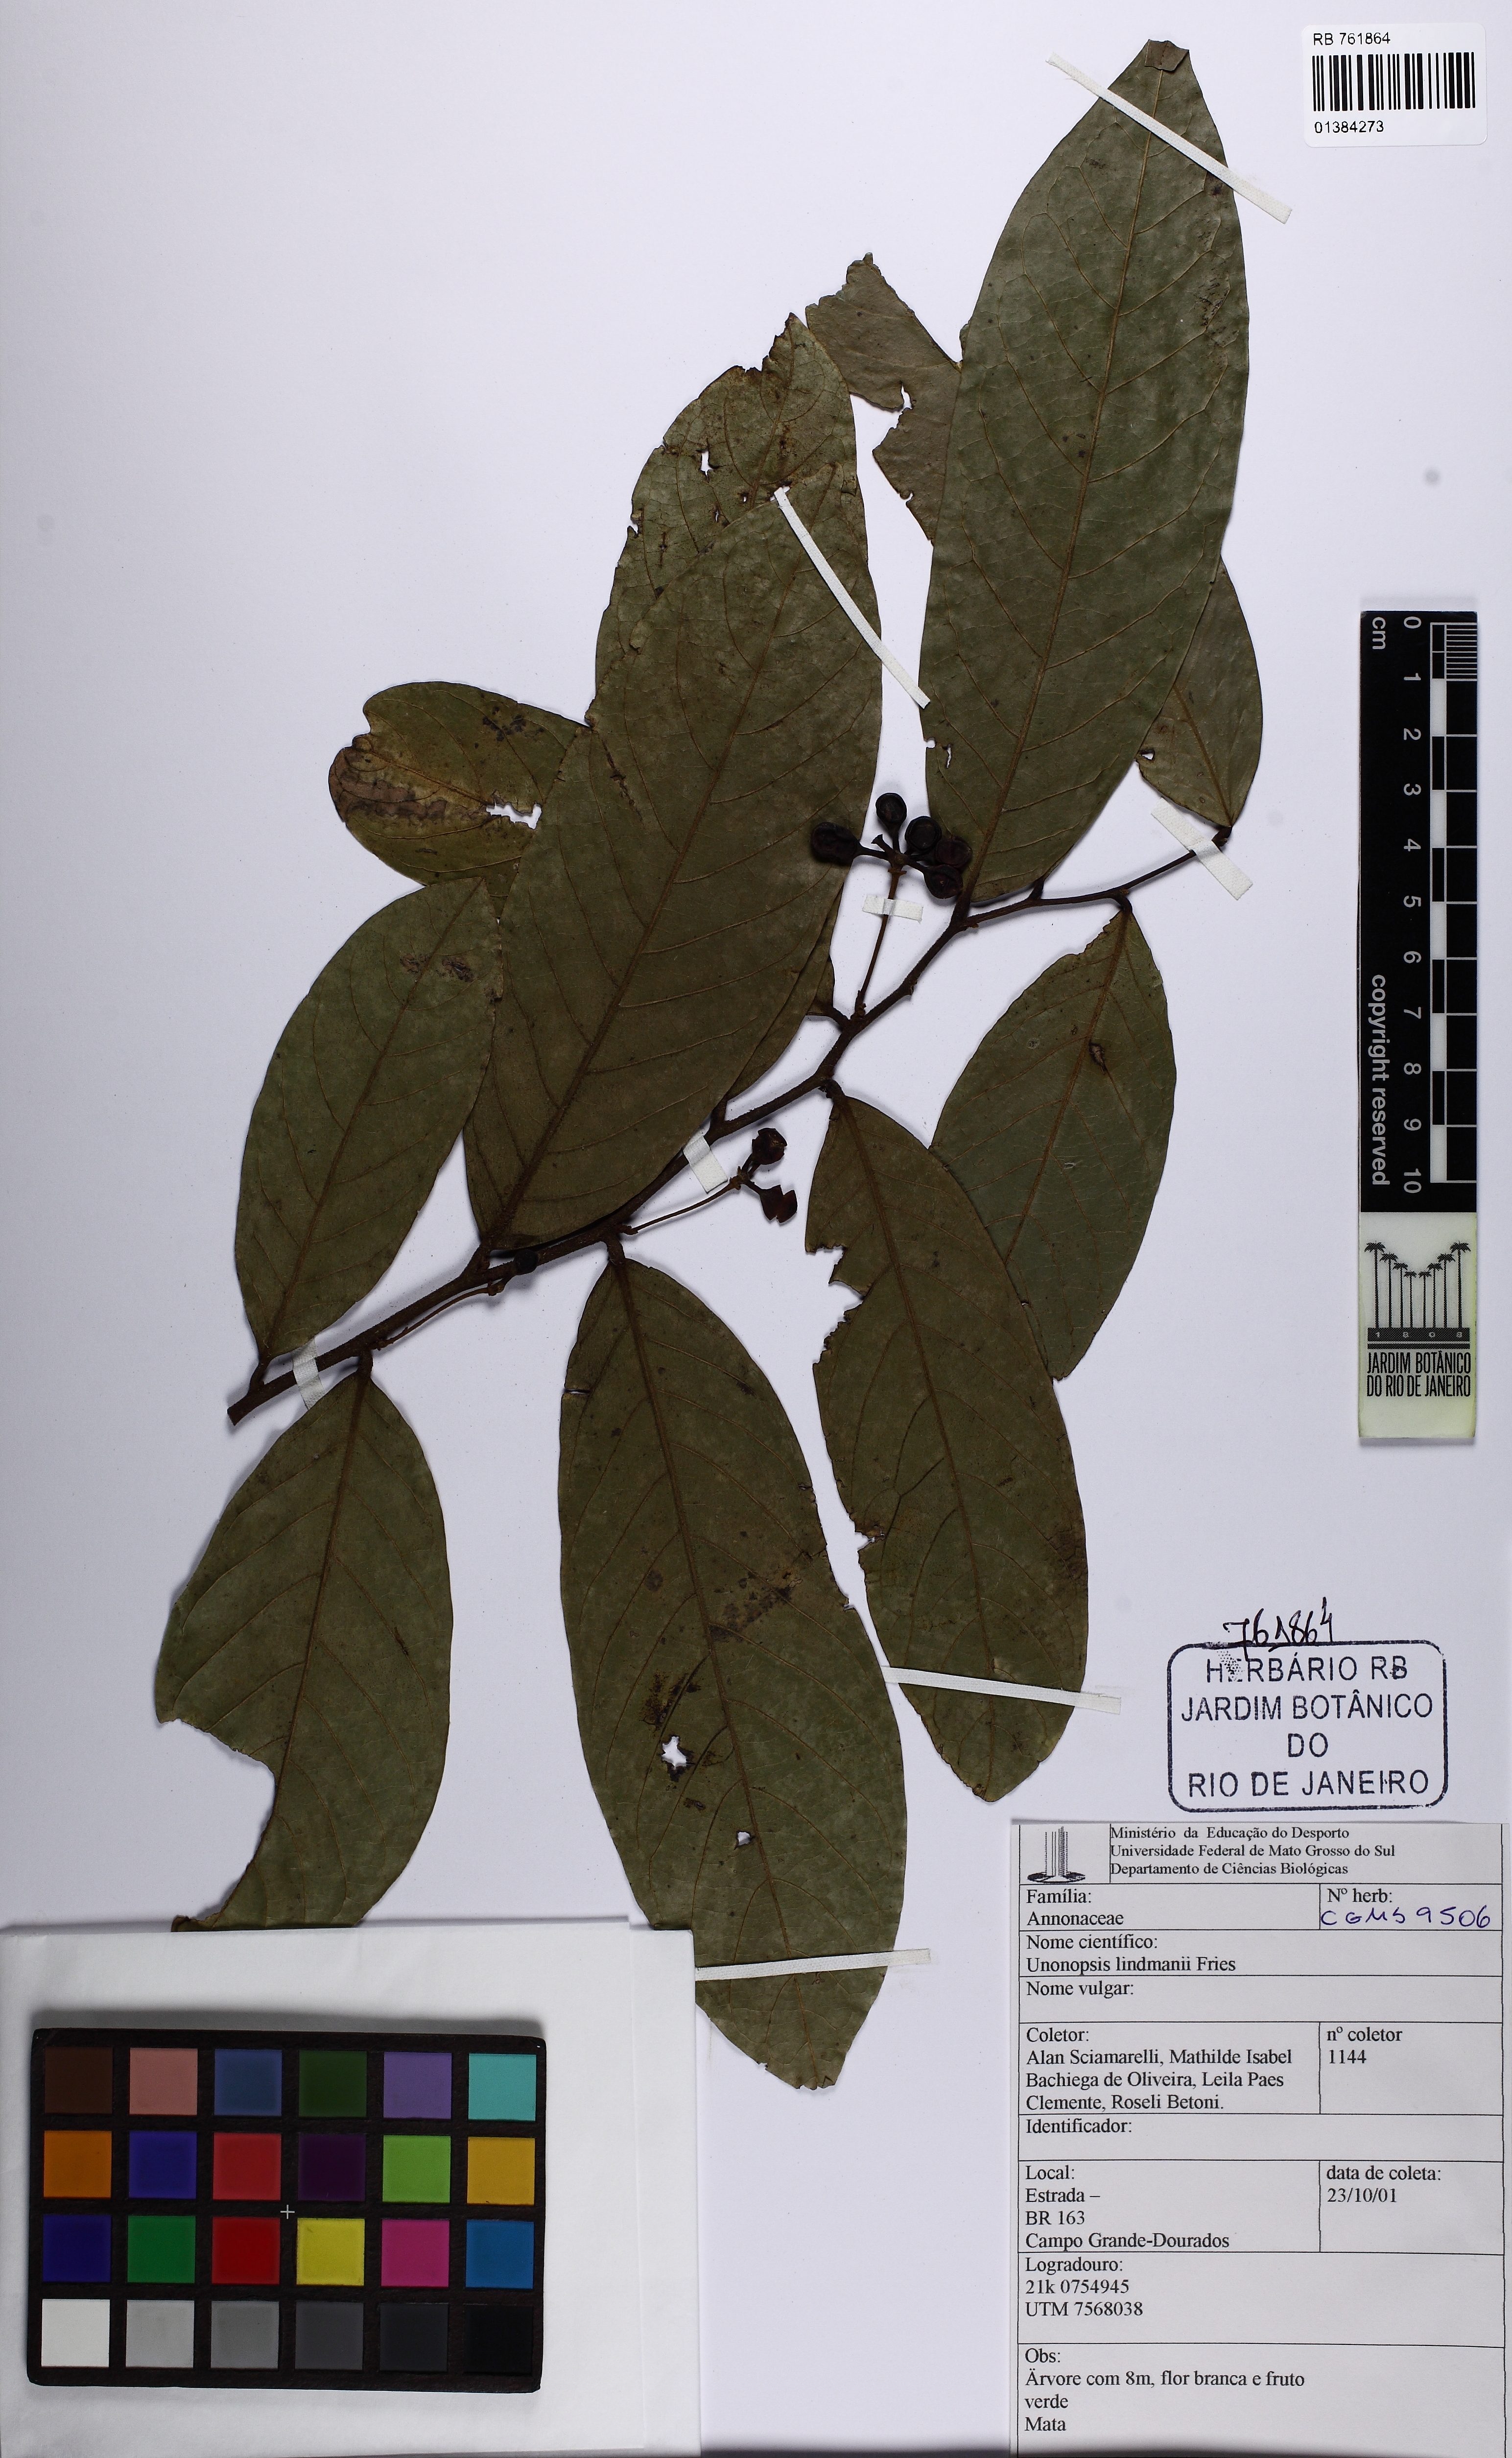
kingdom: Plantae
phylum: Tracheophyta
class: Magnoliopsida
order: Magnoliales
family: Annonaceae
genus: Unonopsis
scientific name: Unonopsis guatterioides
